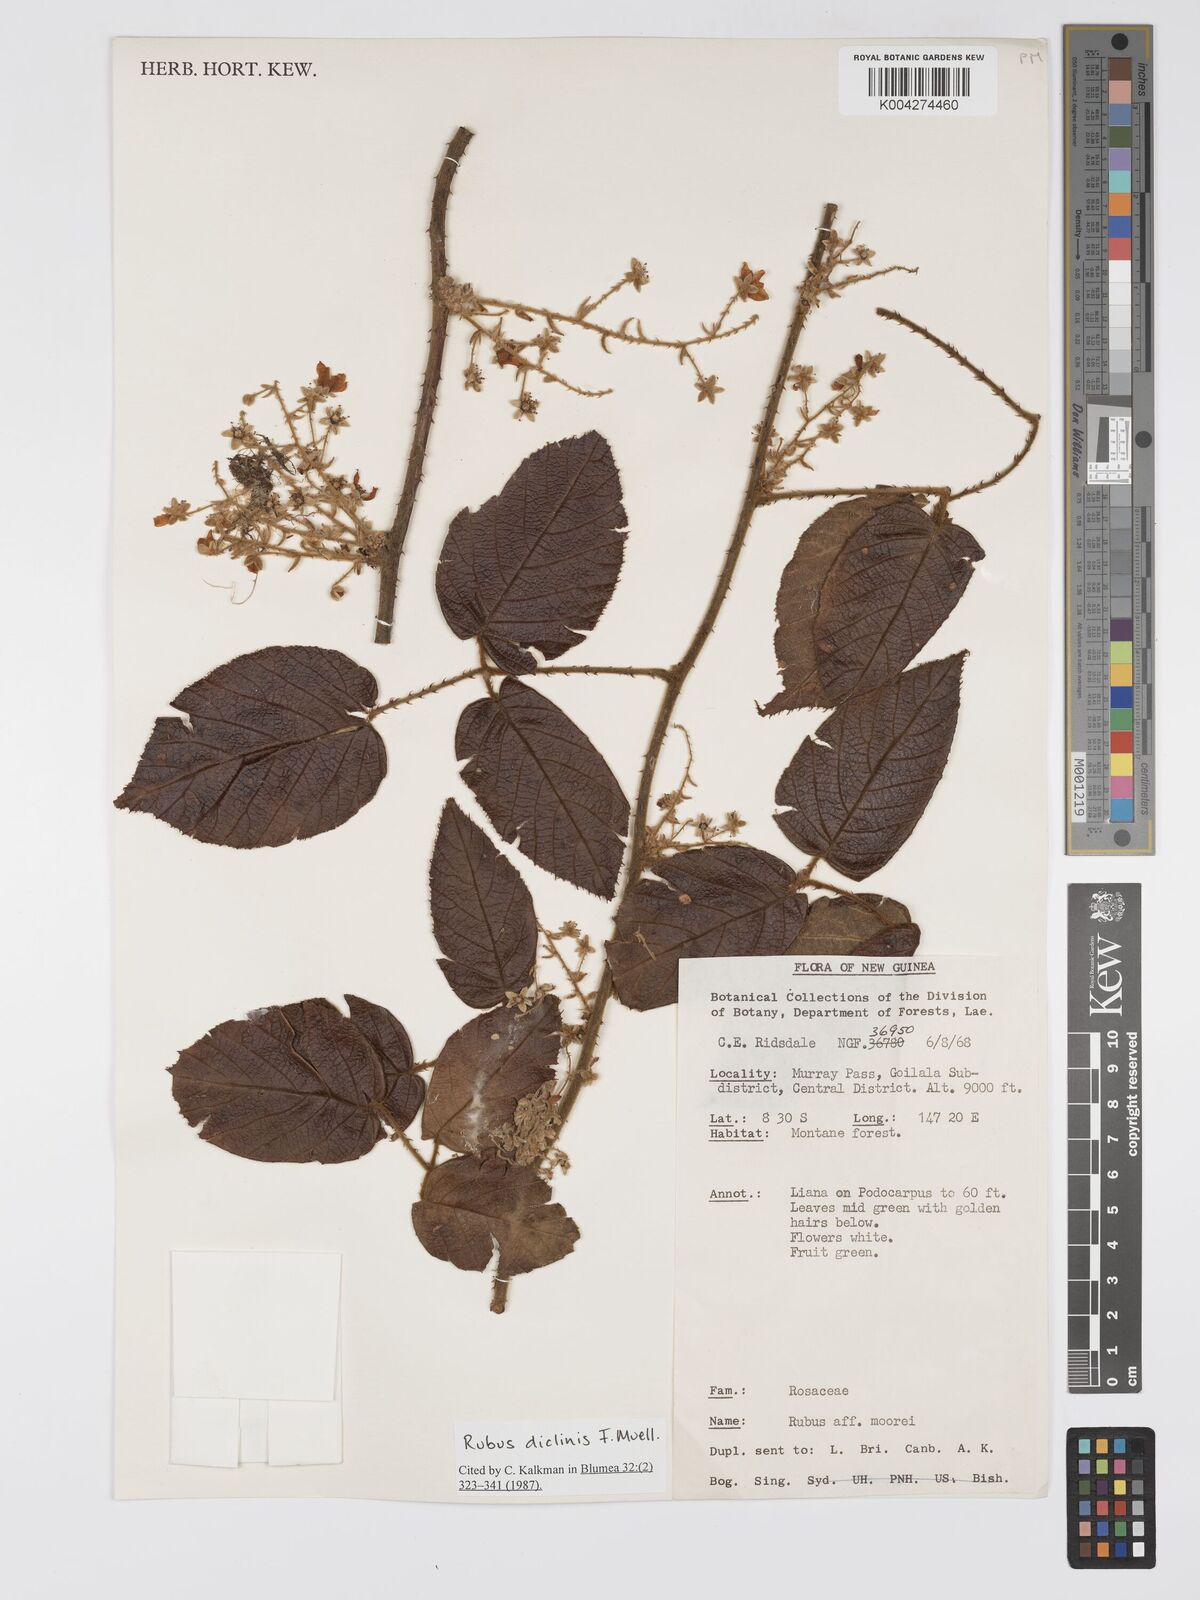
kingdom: Plantae
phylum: Tracheophyta
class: Magnoliopsida
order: Rosales
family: Rosaceae
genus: Rubus
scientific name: Rubus diclinis
